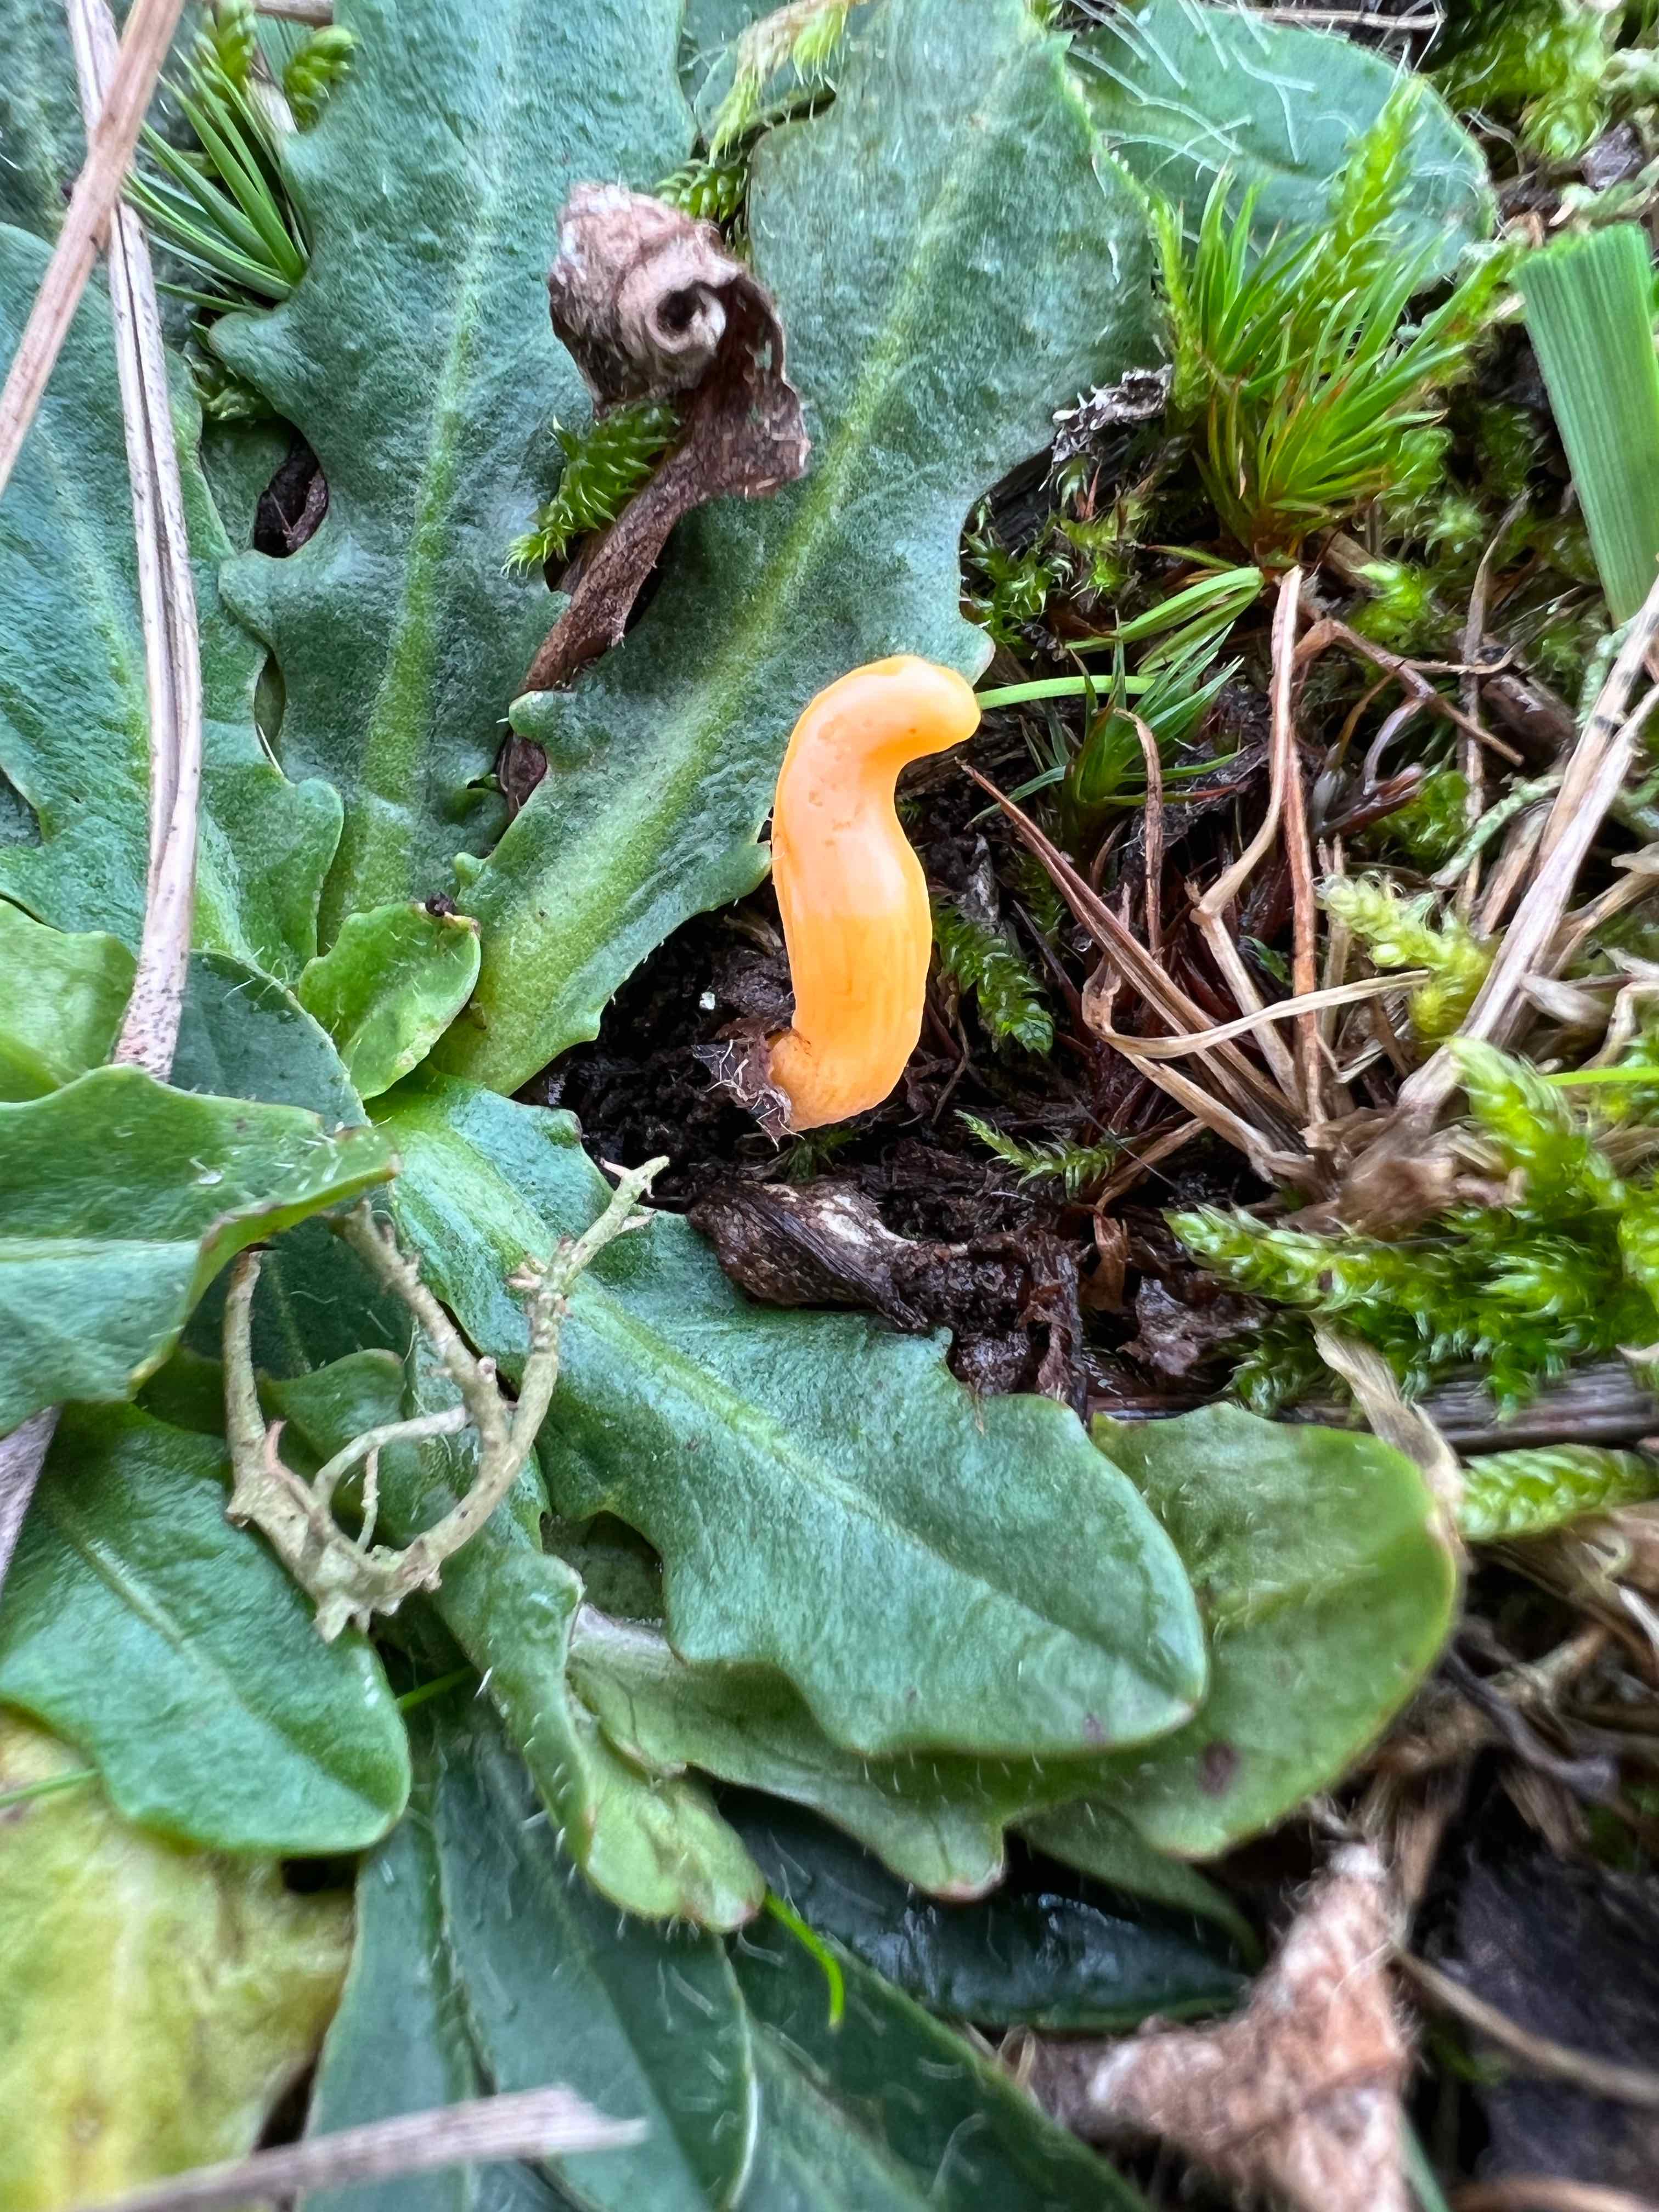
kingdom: Fungi
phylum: Basidiomycota
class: Agaricomycetes
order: Agaricales
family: Clavariaceae
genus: Clavulinopsis
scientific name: Clavulinopsis
